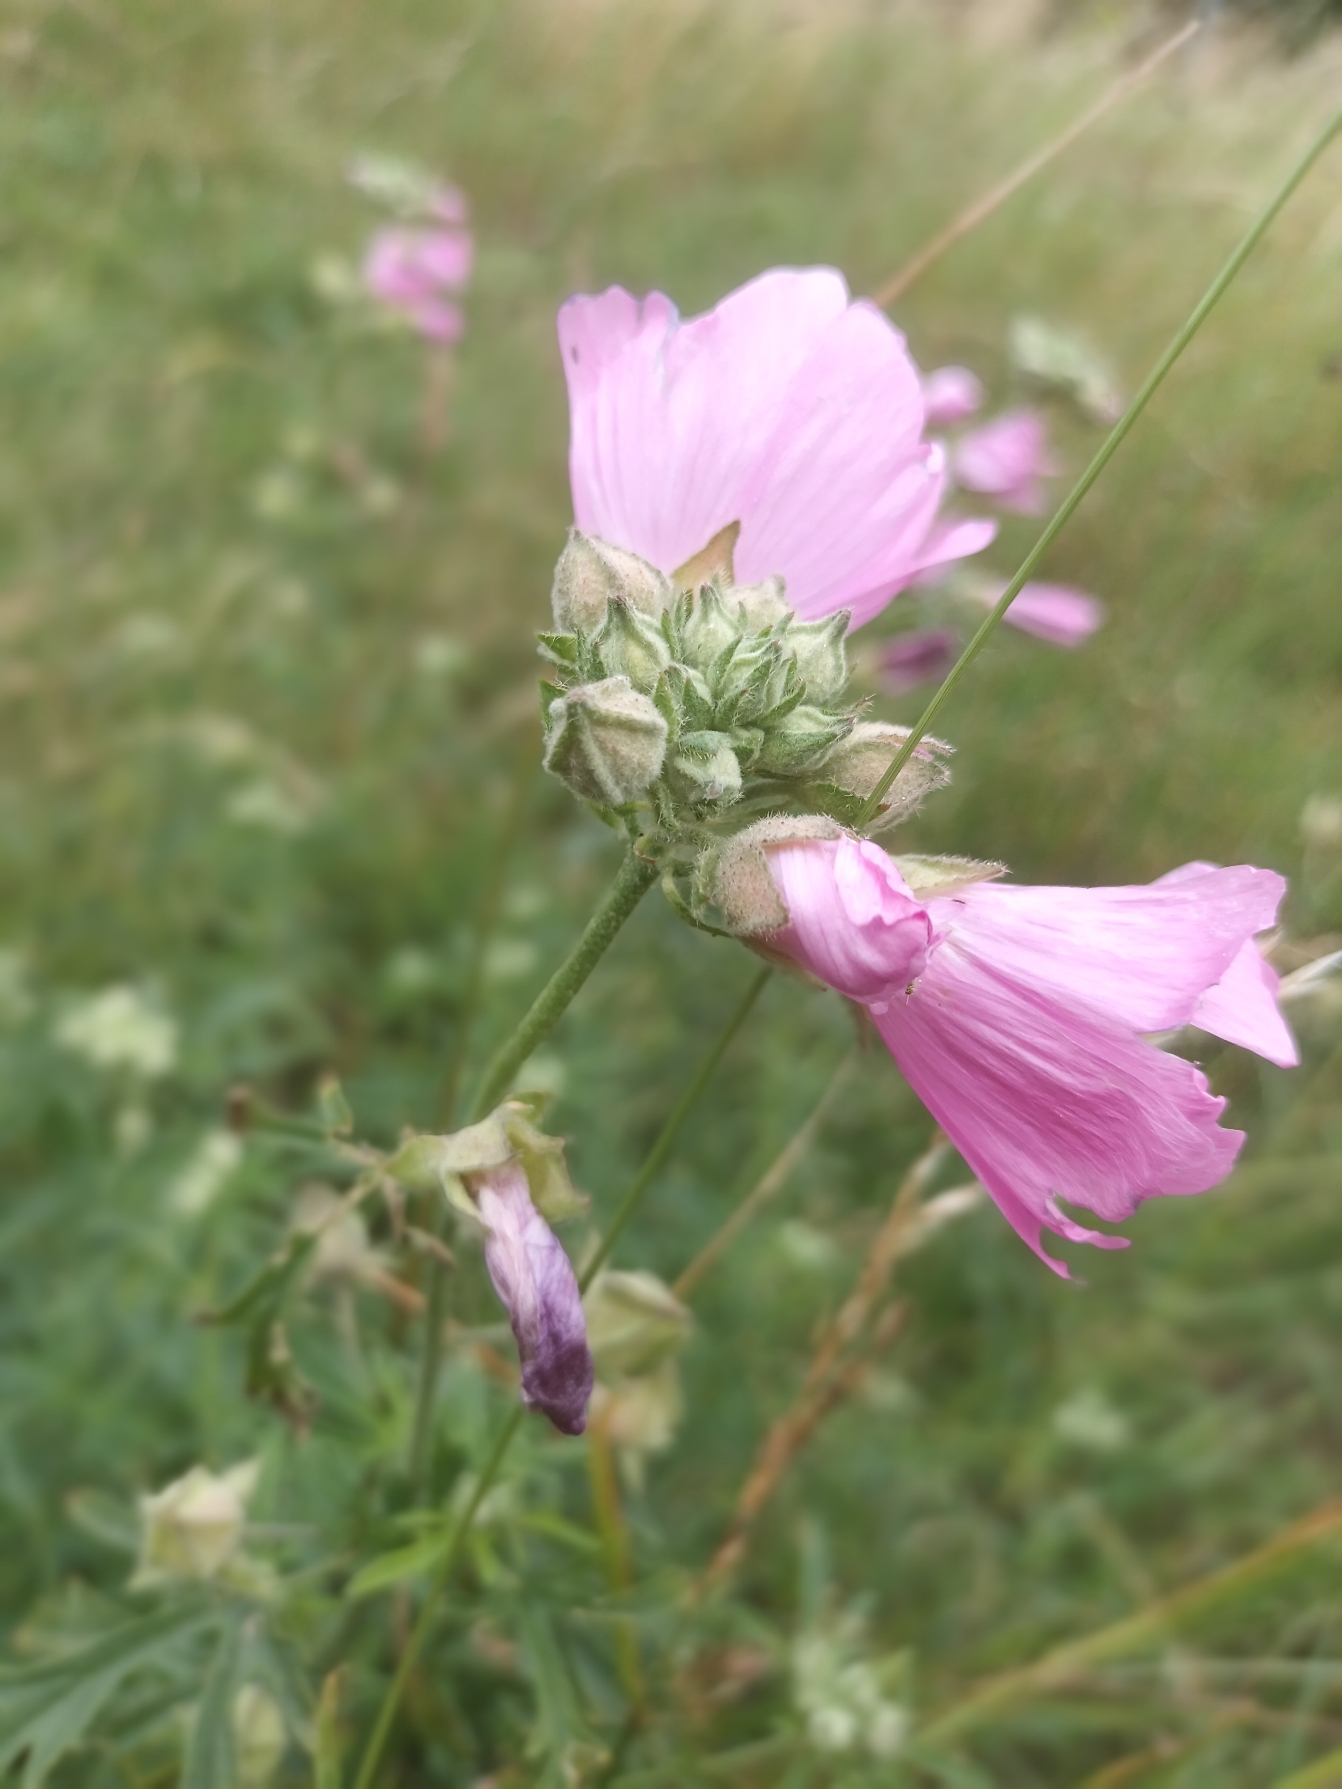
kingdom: Plantae
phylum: Tracheophyta
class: Magnoliopsida
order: Malvales
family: Malvaceae
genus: Malva
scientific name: Malva alcea
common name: Rosen-katost
